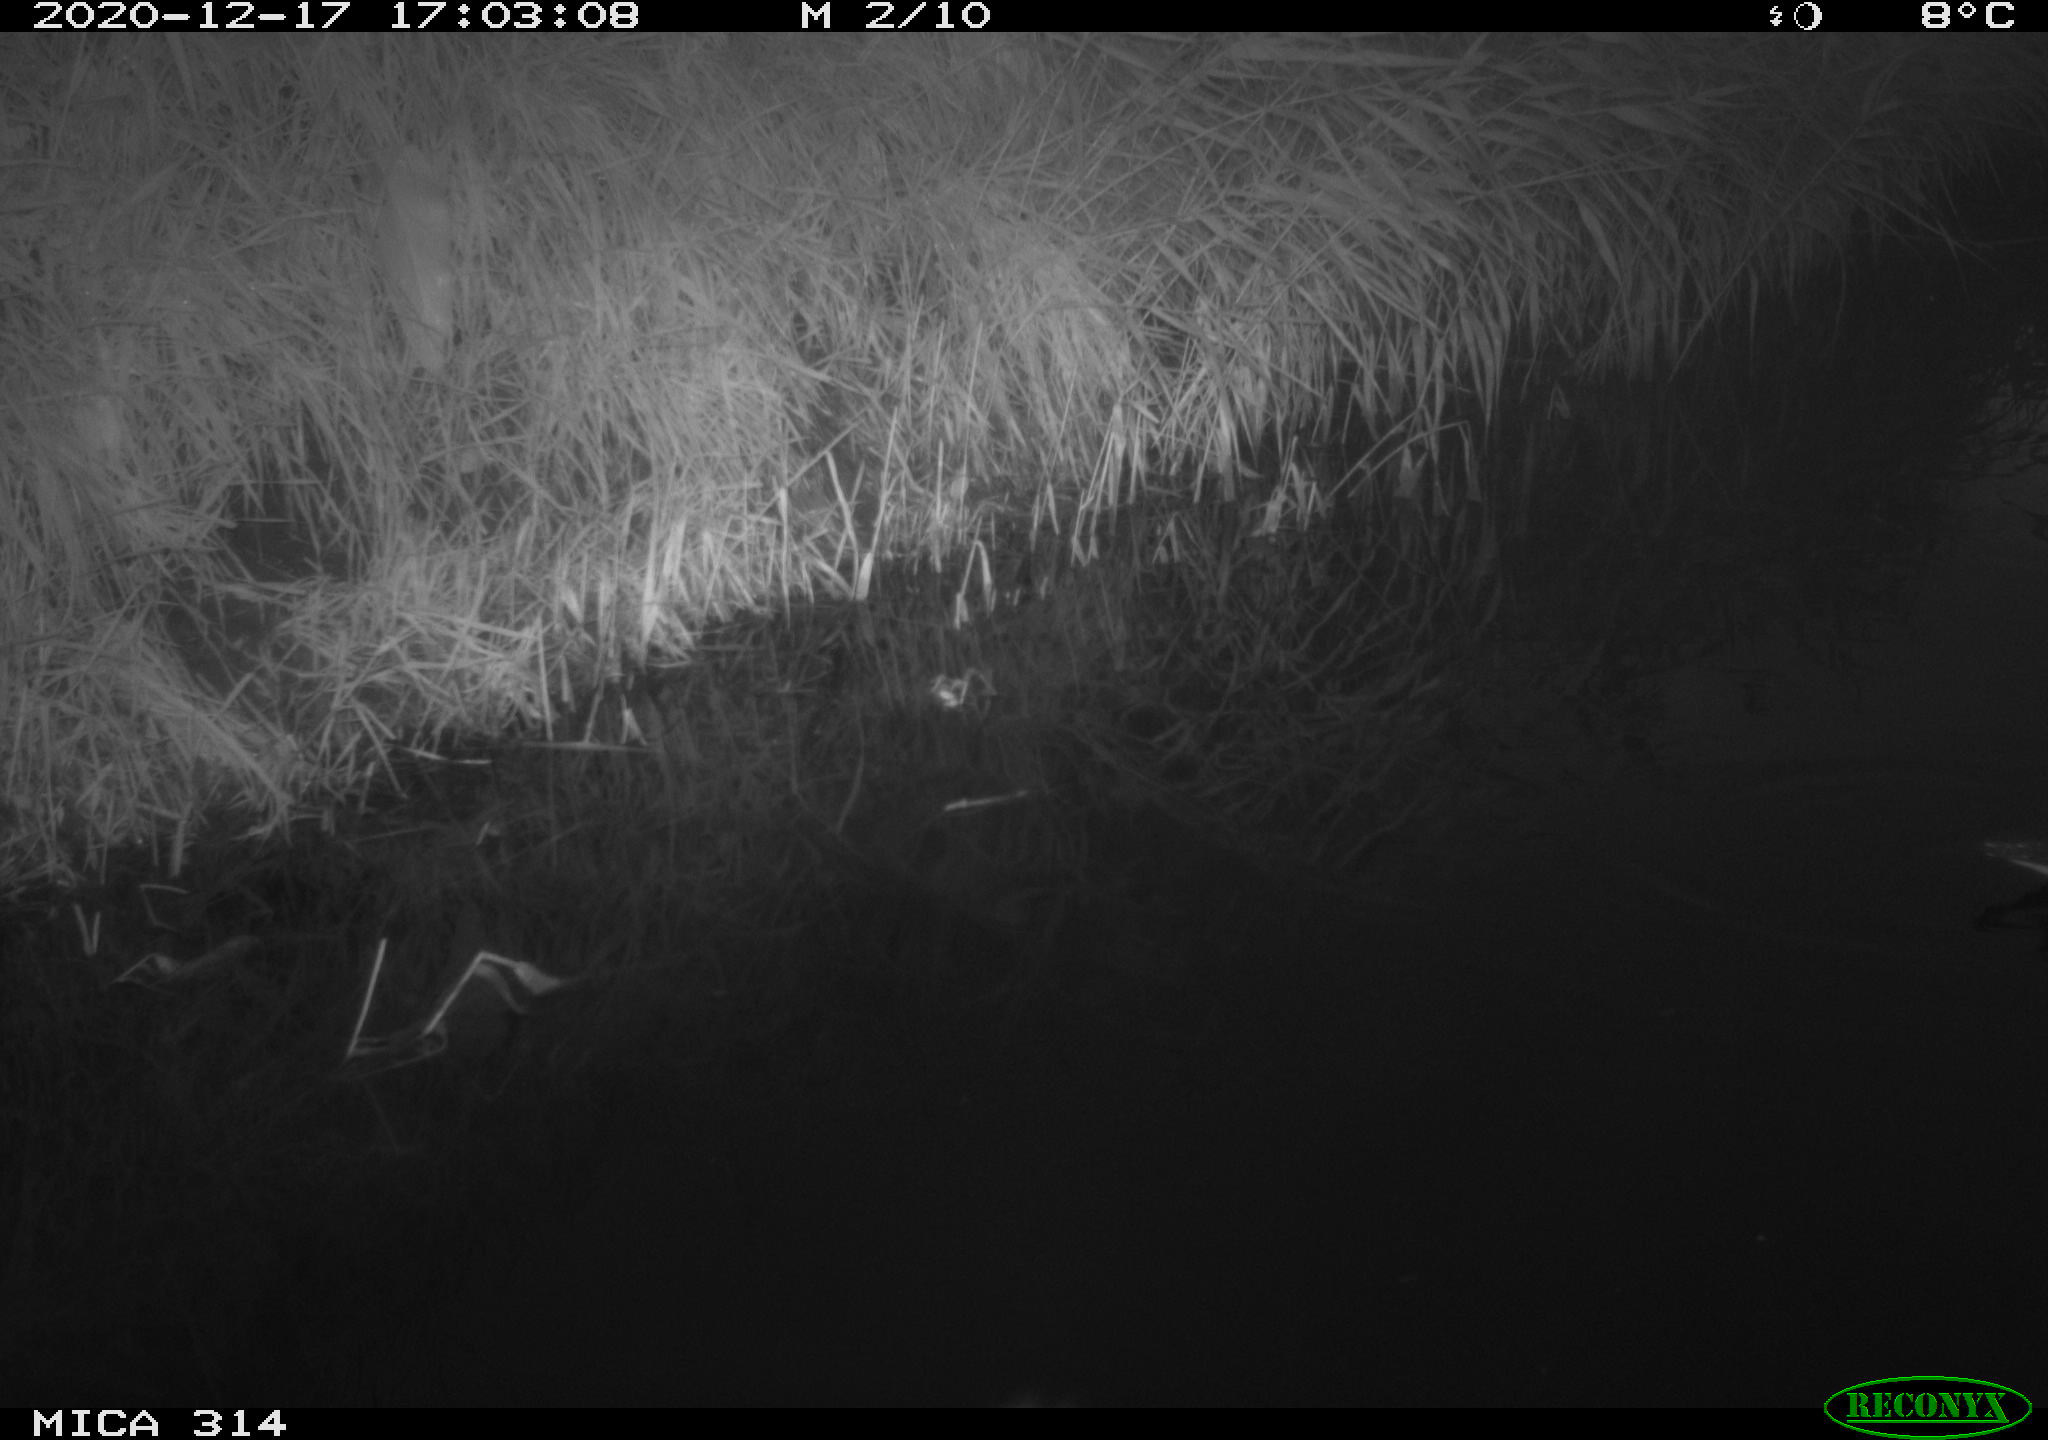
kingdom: Animalia
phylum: Chordata
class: Aves
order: Gruiformes
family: Rallidae
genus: Gallinula
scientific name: Gallinula chloropus
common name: Common moorhen
